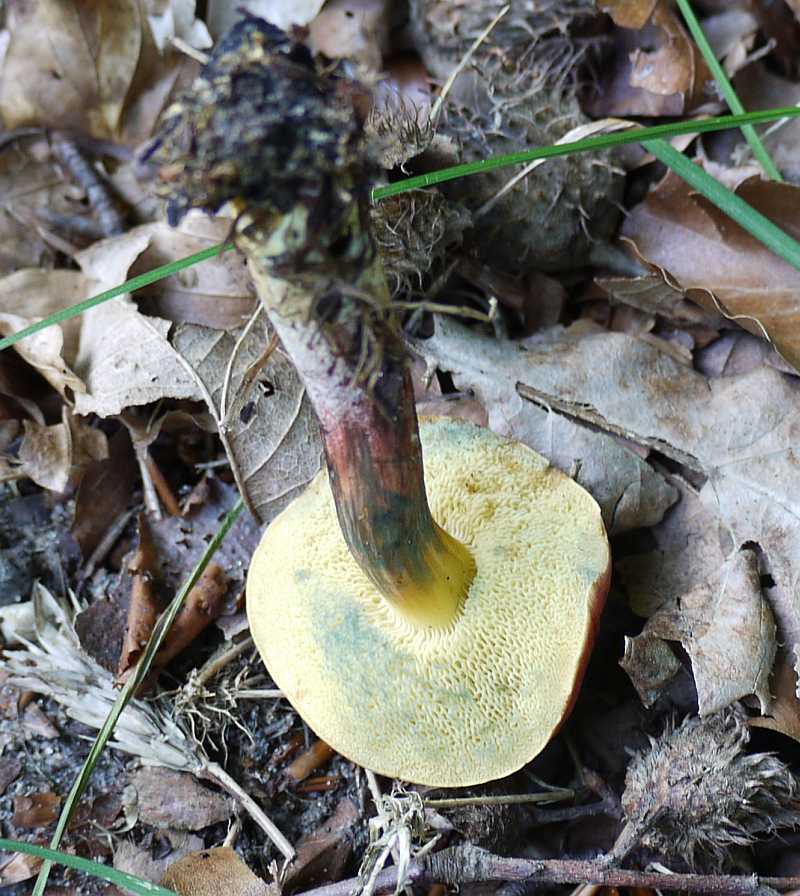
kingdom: Fungi
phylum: Basidiomycota
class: Agaricomycetes
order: Boletales
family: Boletaceae
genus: Hortiboletus
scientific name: Hortiboletus rubellus
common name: blodrød rørhat
